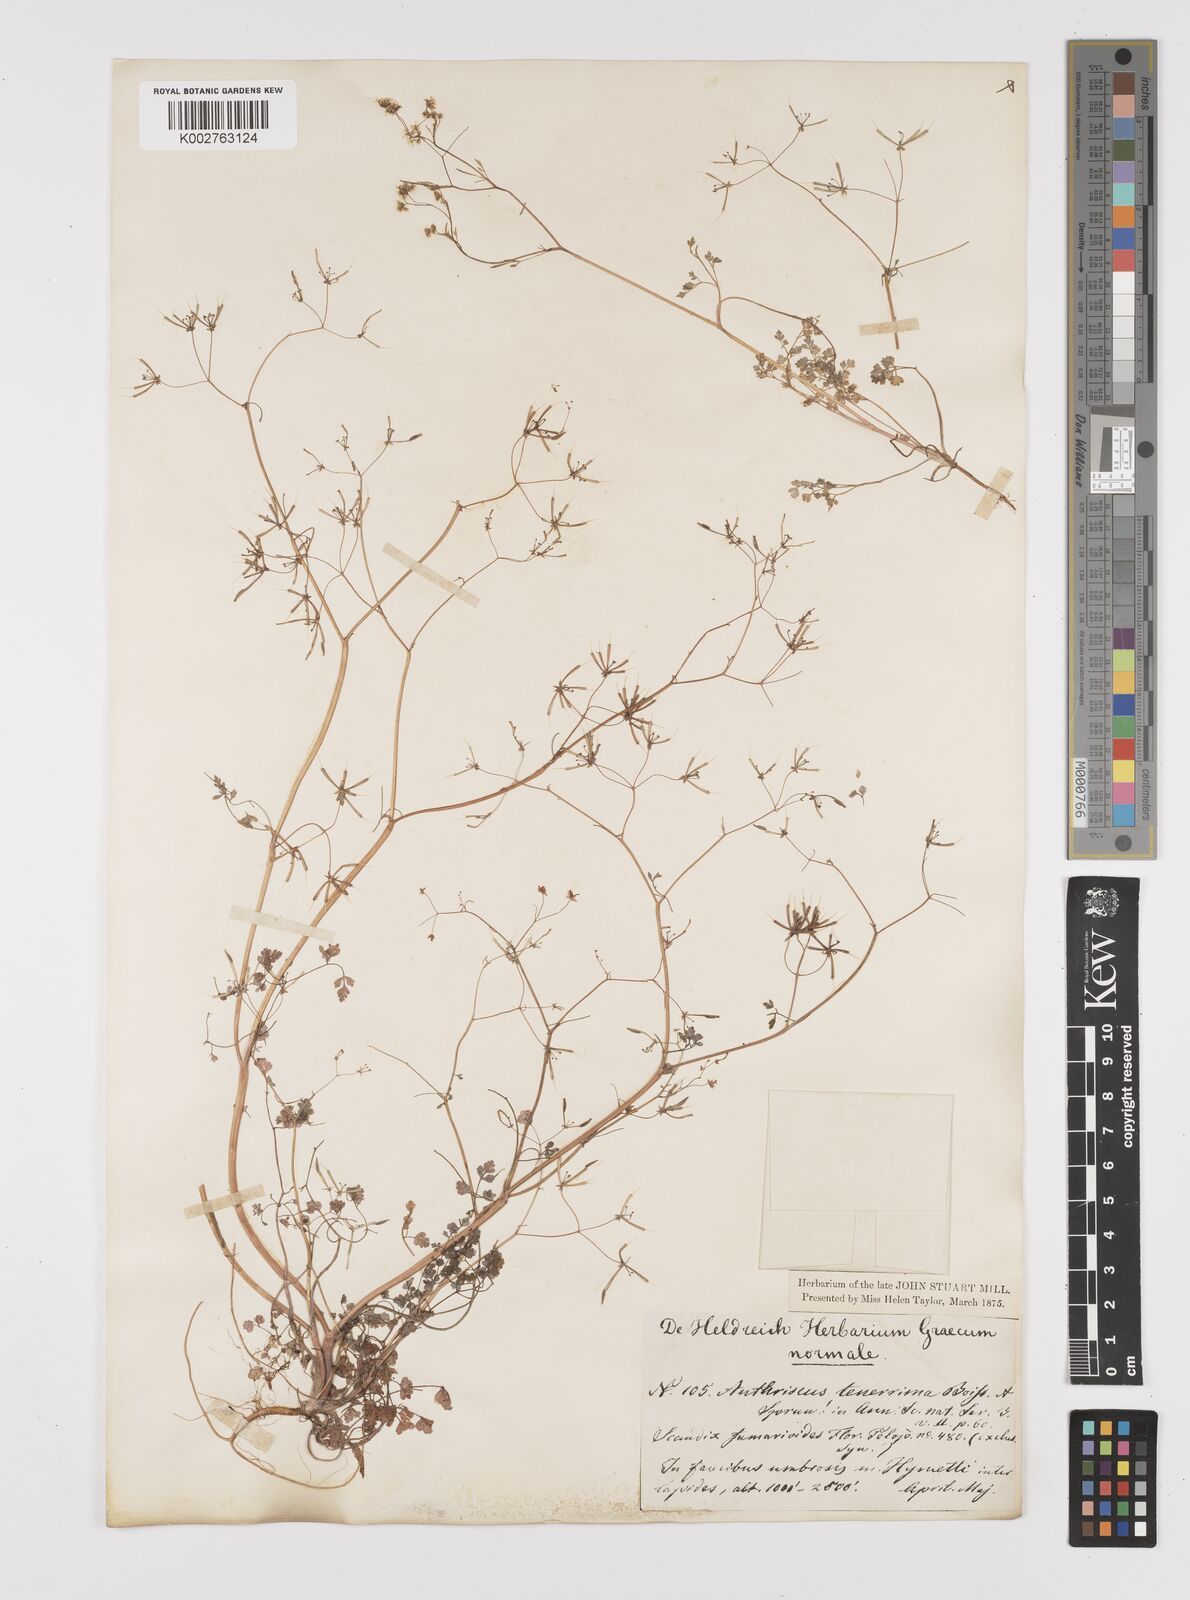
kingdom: Plantae
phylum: Tracheophyta
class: Magnoliopsida
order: Apiales
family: Apiaceae
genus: Anthriscus
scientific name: Anthriscus tenerrima
